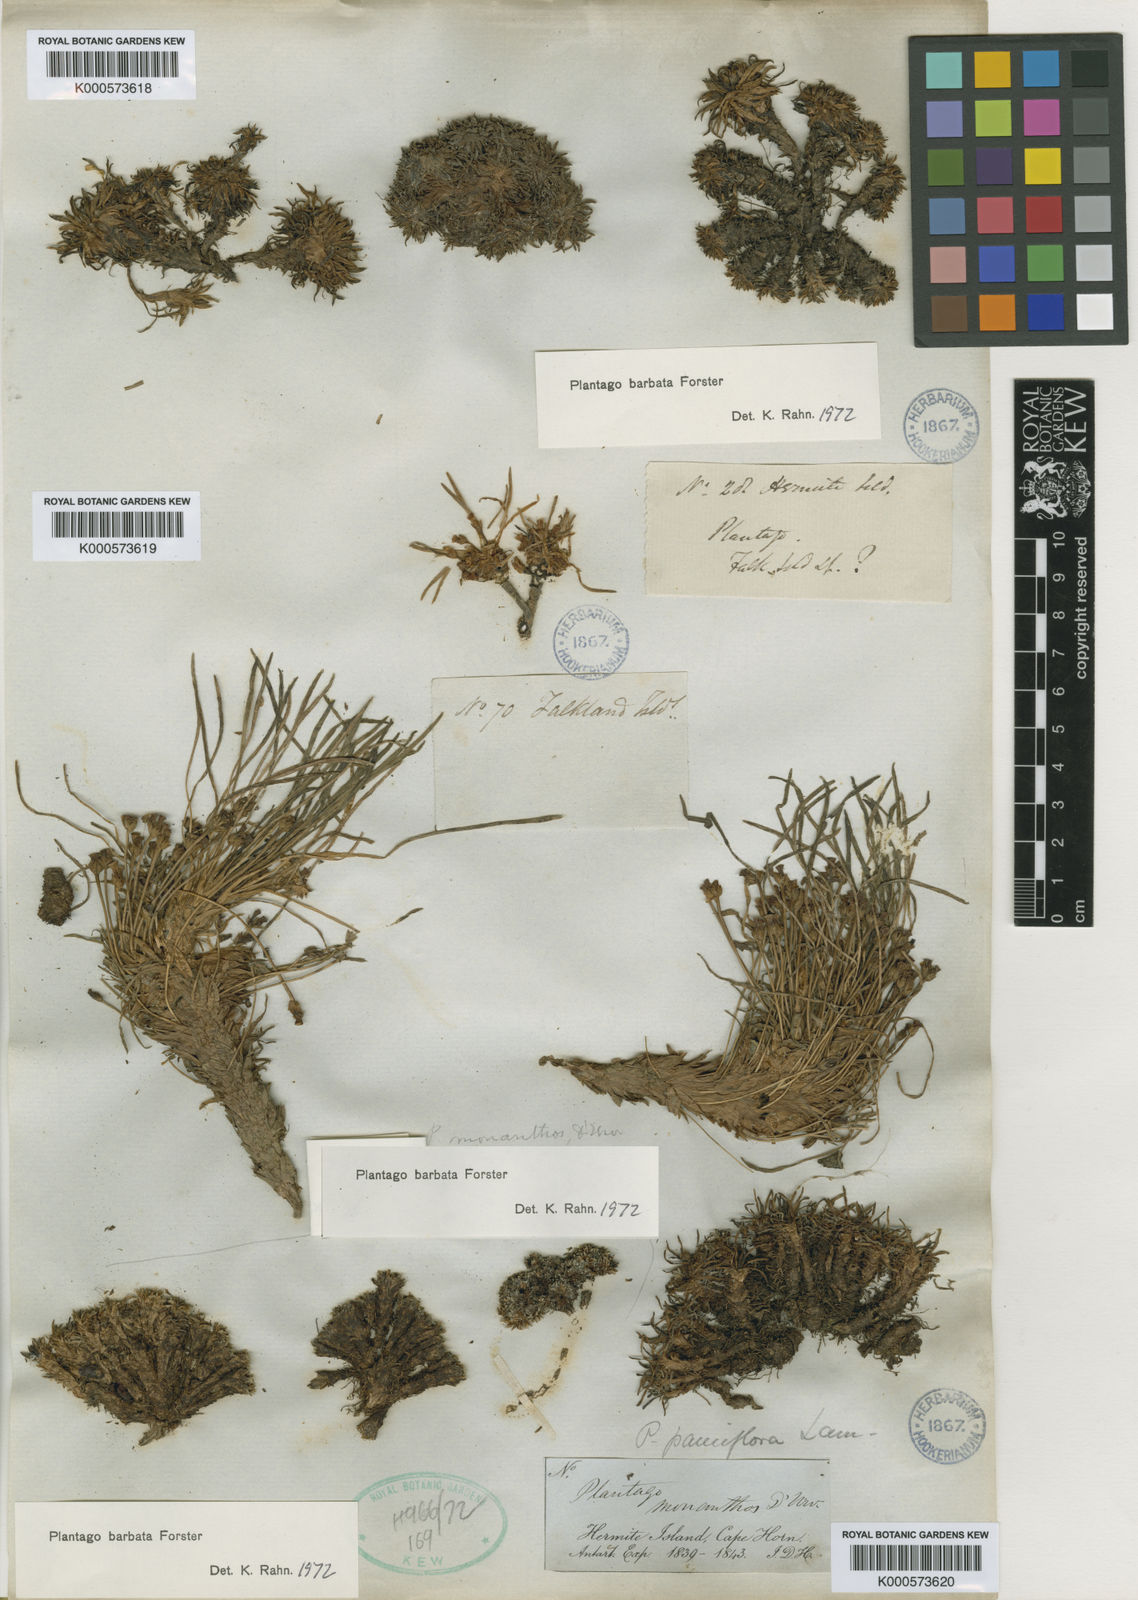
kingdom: Plantae
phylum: Tracheophyta
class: Magnoliopsida
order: Lamiales
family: Plantaginaceae
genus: Plantago
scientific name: Plantago barbata
